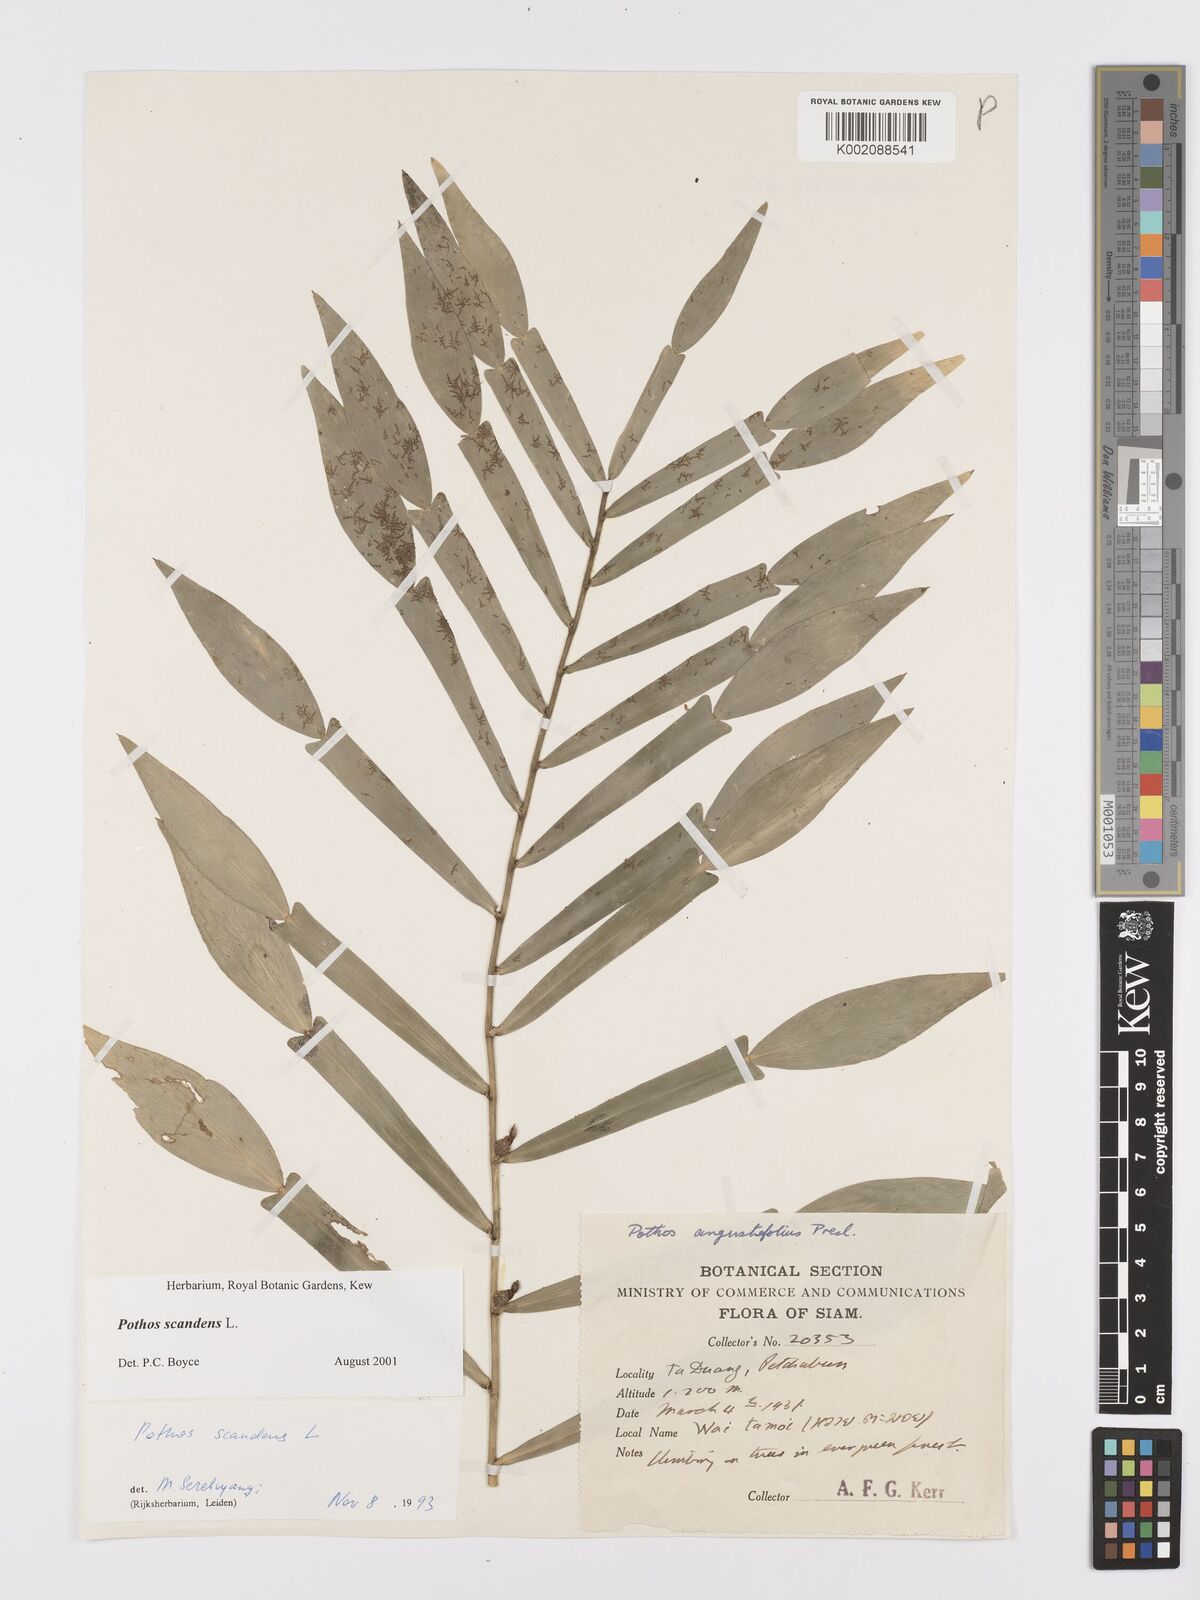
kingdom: Plantae
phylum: Tracheophyta
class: Liliopsida
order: Alismatales
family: Araceae
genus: Pothos
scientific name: Pothos scandens
